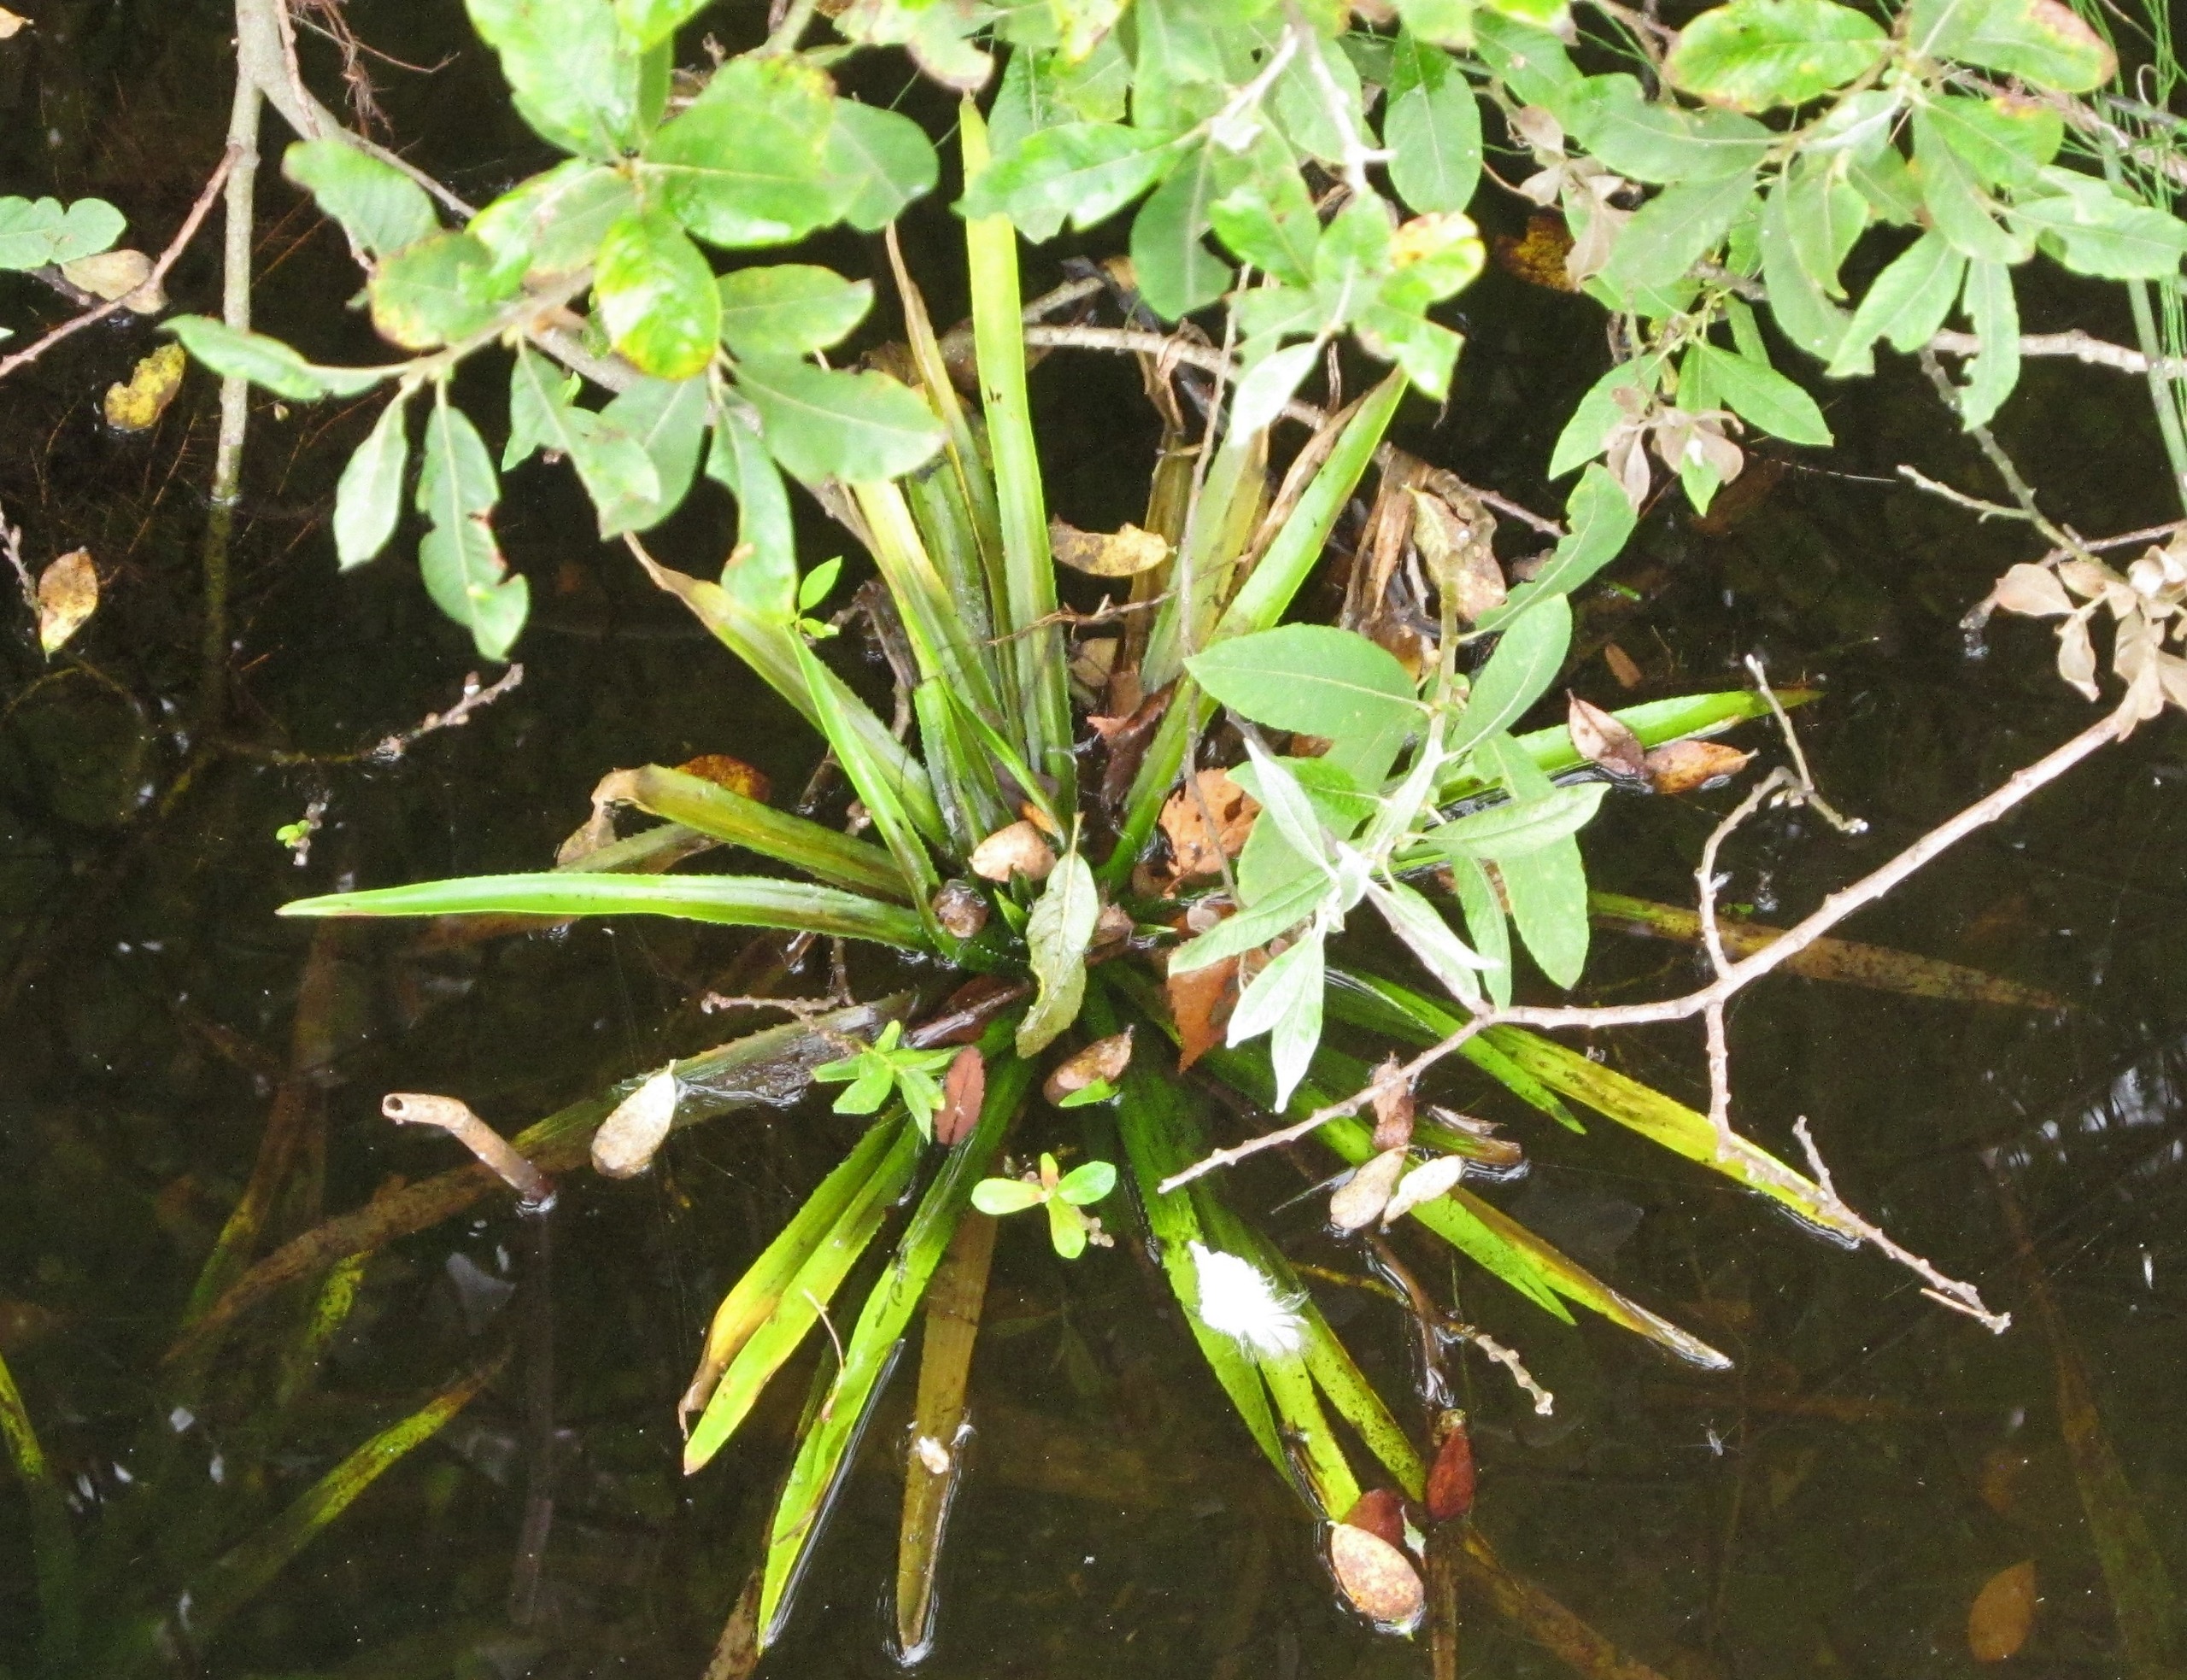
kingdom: Plantae
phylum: Tracheophyta
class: Liliopsida
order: Alismatales
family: Hydrocharitaceae
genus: Stratiotes
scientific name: Stratiotes aloides
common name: Krebseklo
